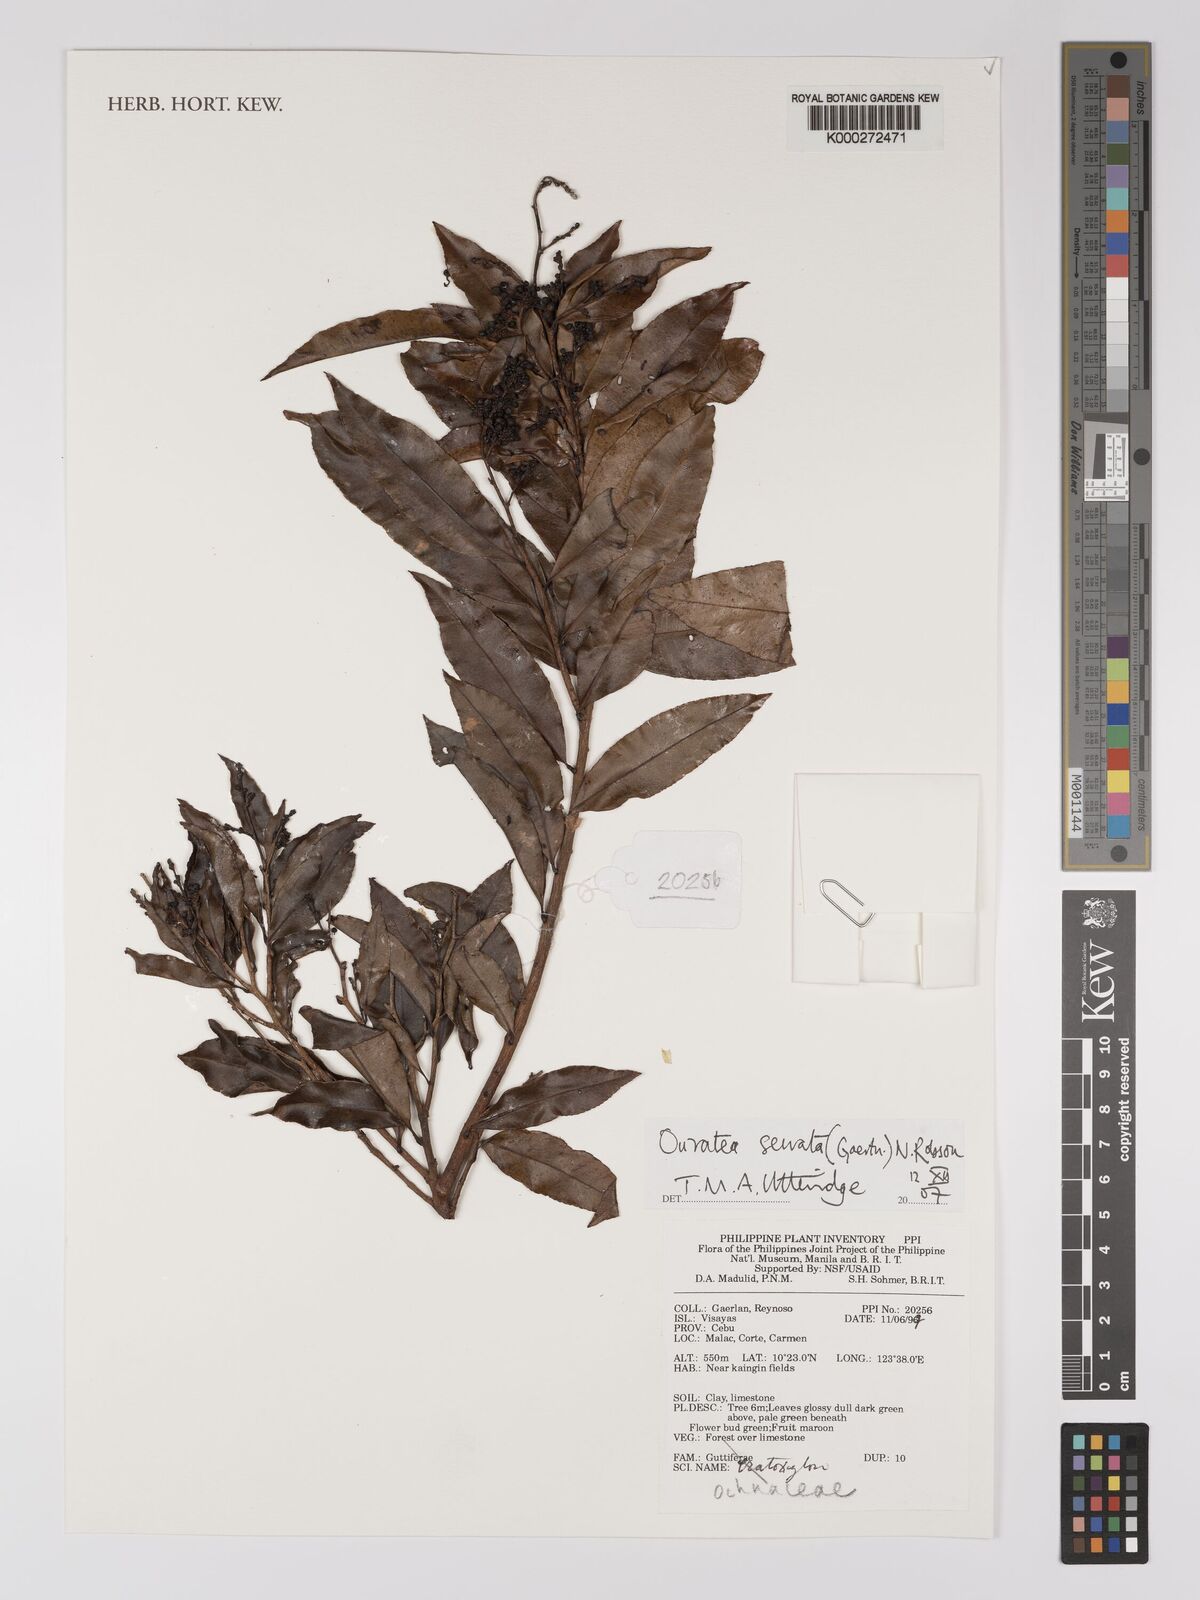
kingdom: Plantae
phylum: Tracheophyta
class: Magnoliopsida
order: Malpighiales
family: Ochnaceae
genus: Gomphia
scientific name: Gomphia serrata
